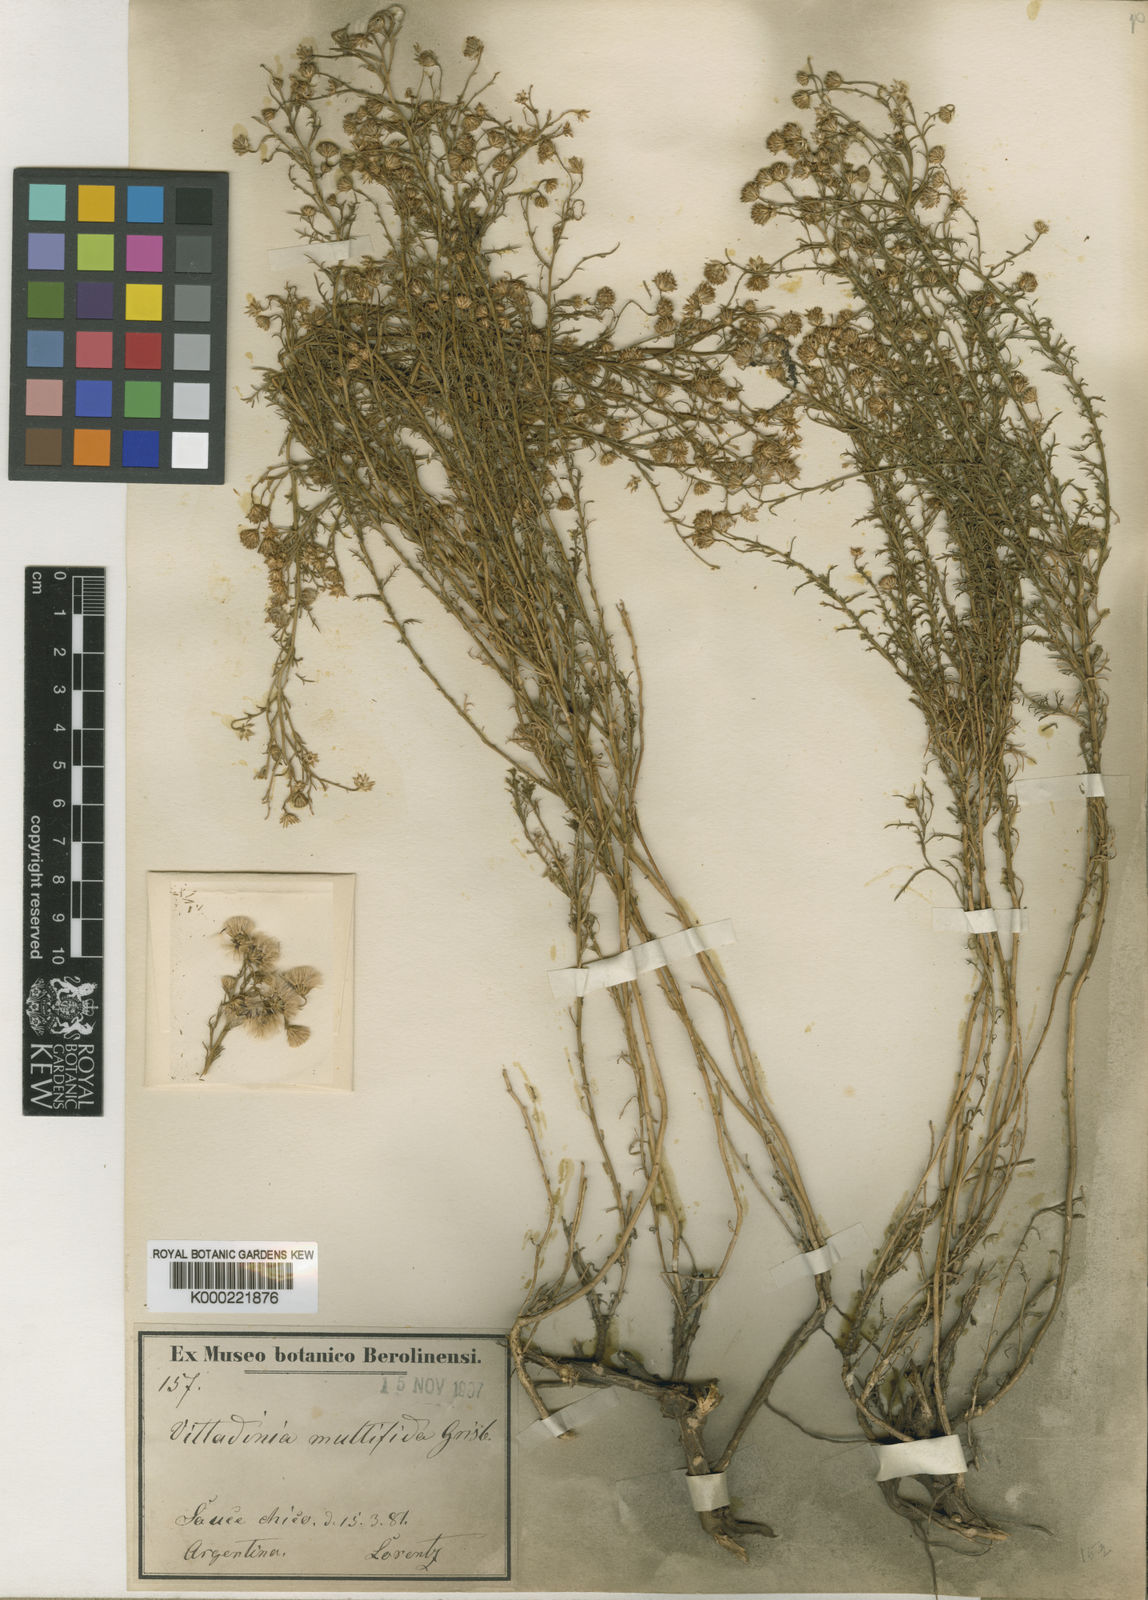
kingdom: Plantae
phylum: Tracheophyta
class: Magnoliopsida
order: Asterales
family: Asteraceae
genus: Baccharis
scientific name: Baccharis ulicina
